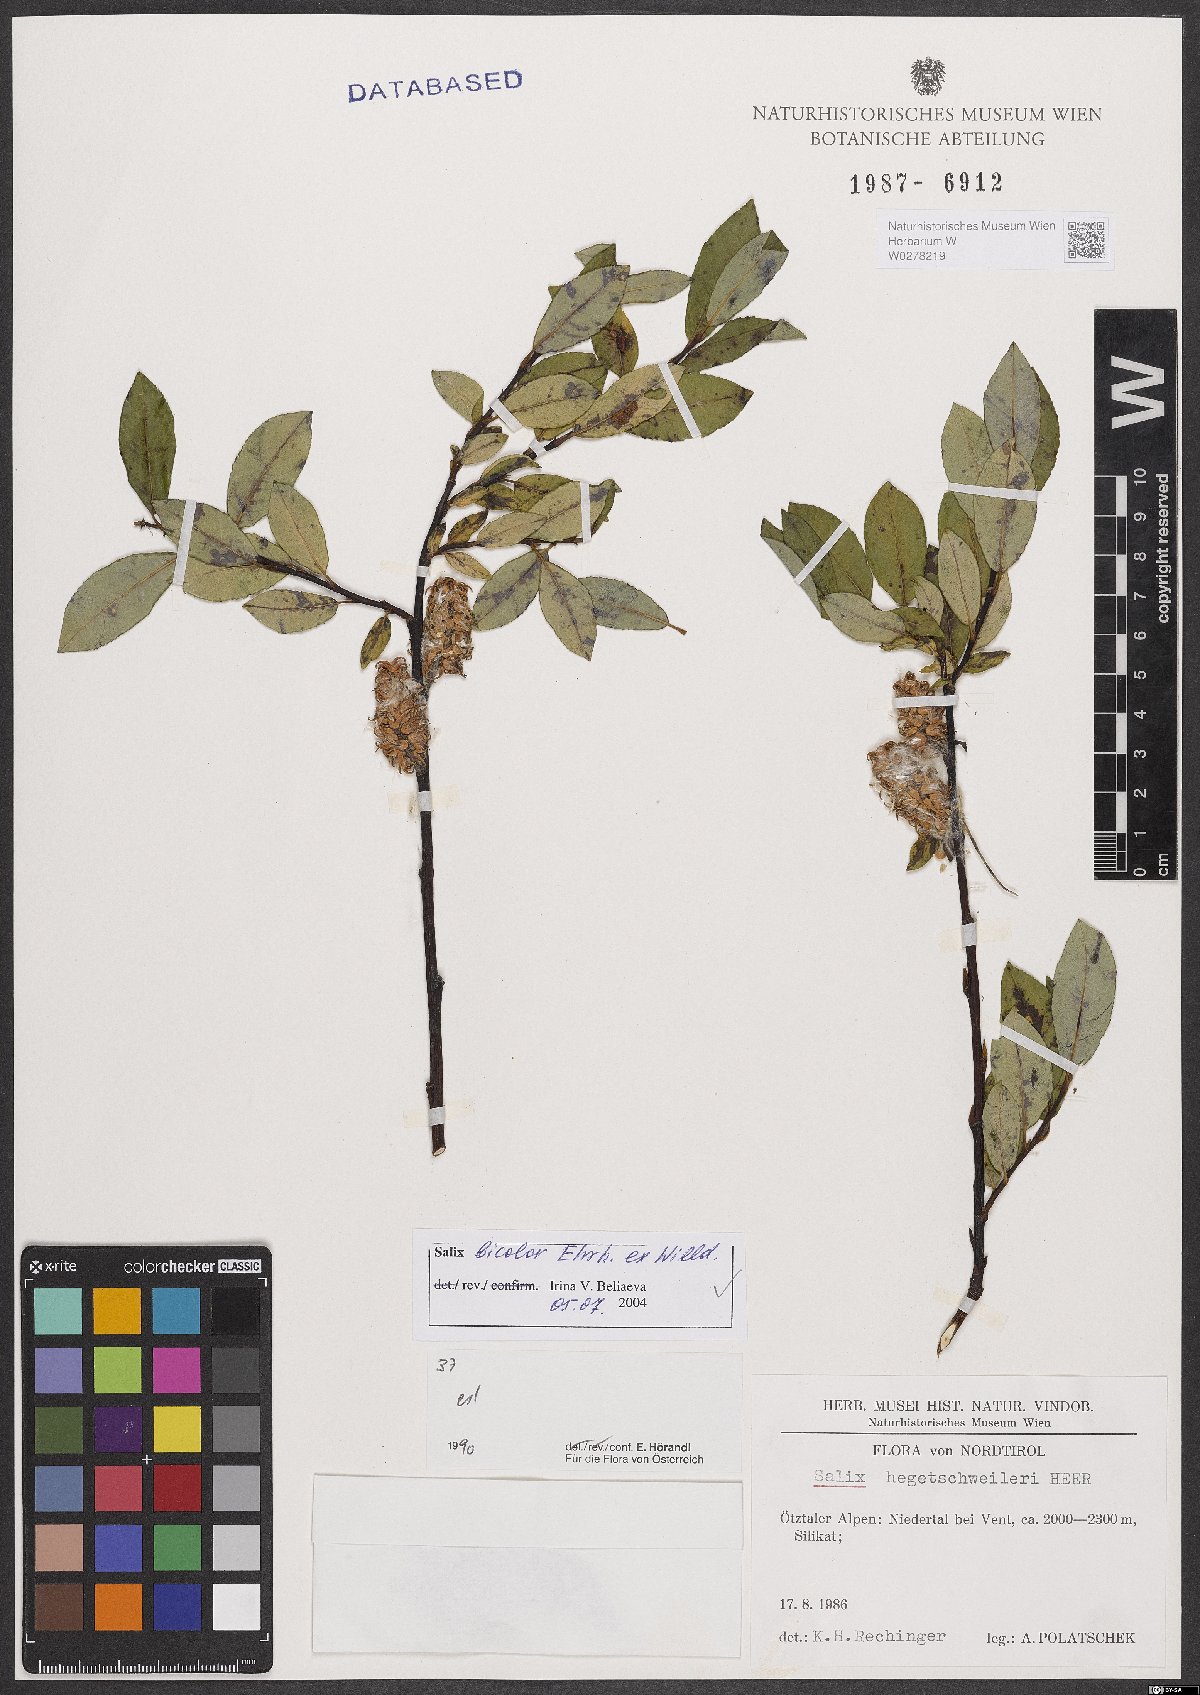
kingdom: Plantae
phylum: Tracheophyta
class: Magnoliopsida
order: Malpighiales
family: Salicaceae
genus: Salix
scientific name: Salix bicolor
